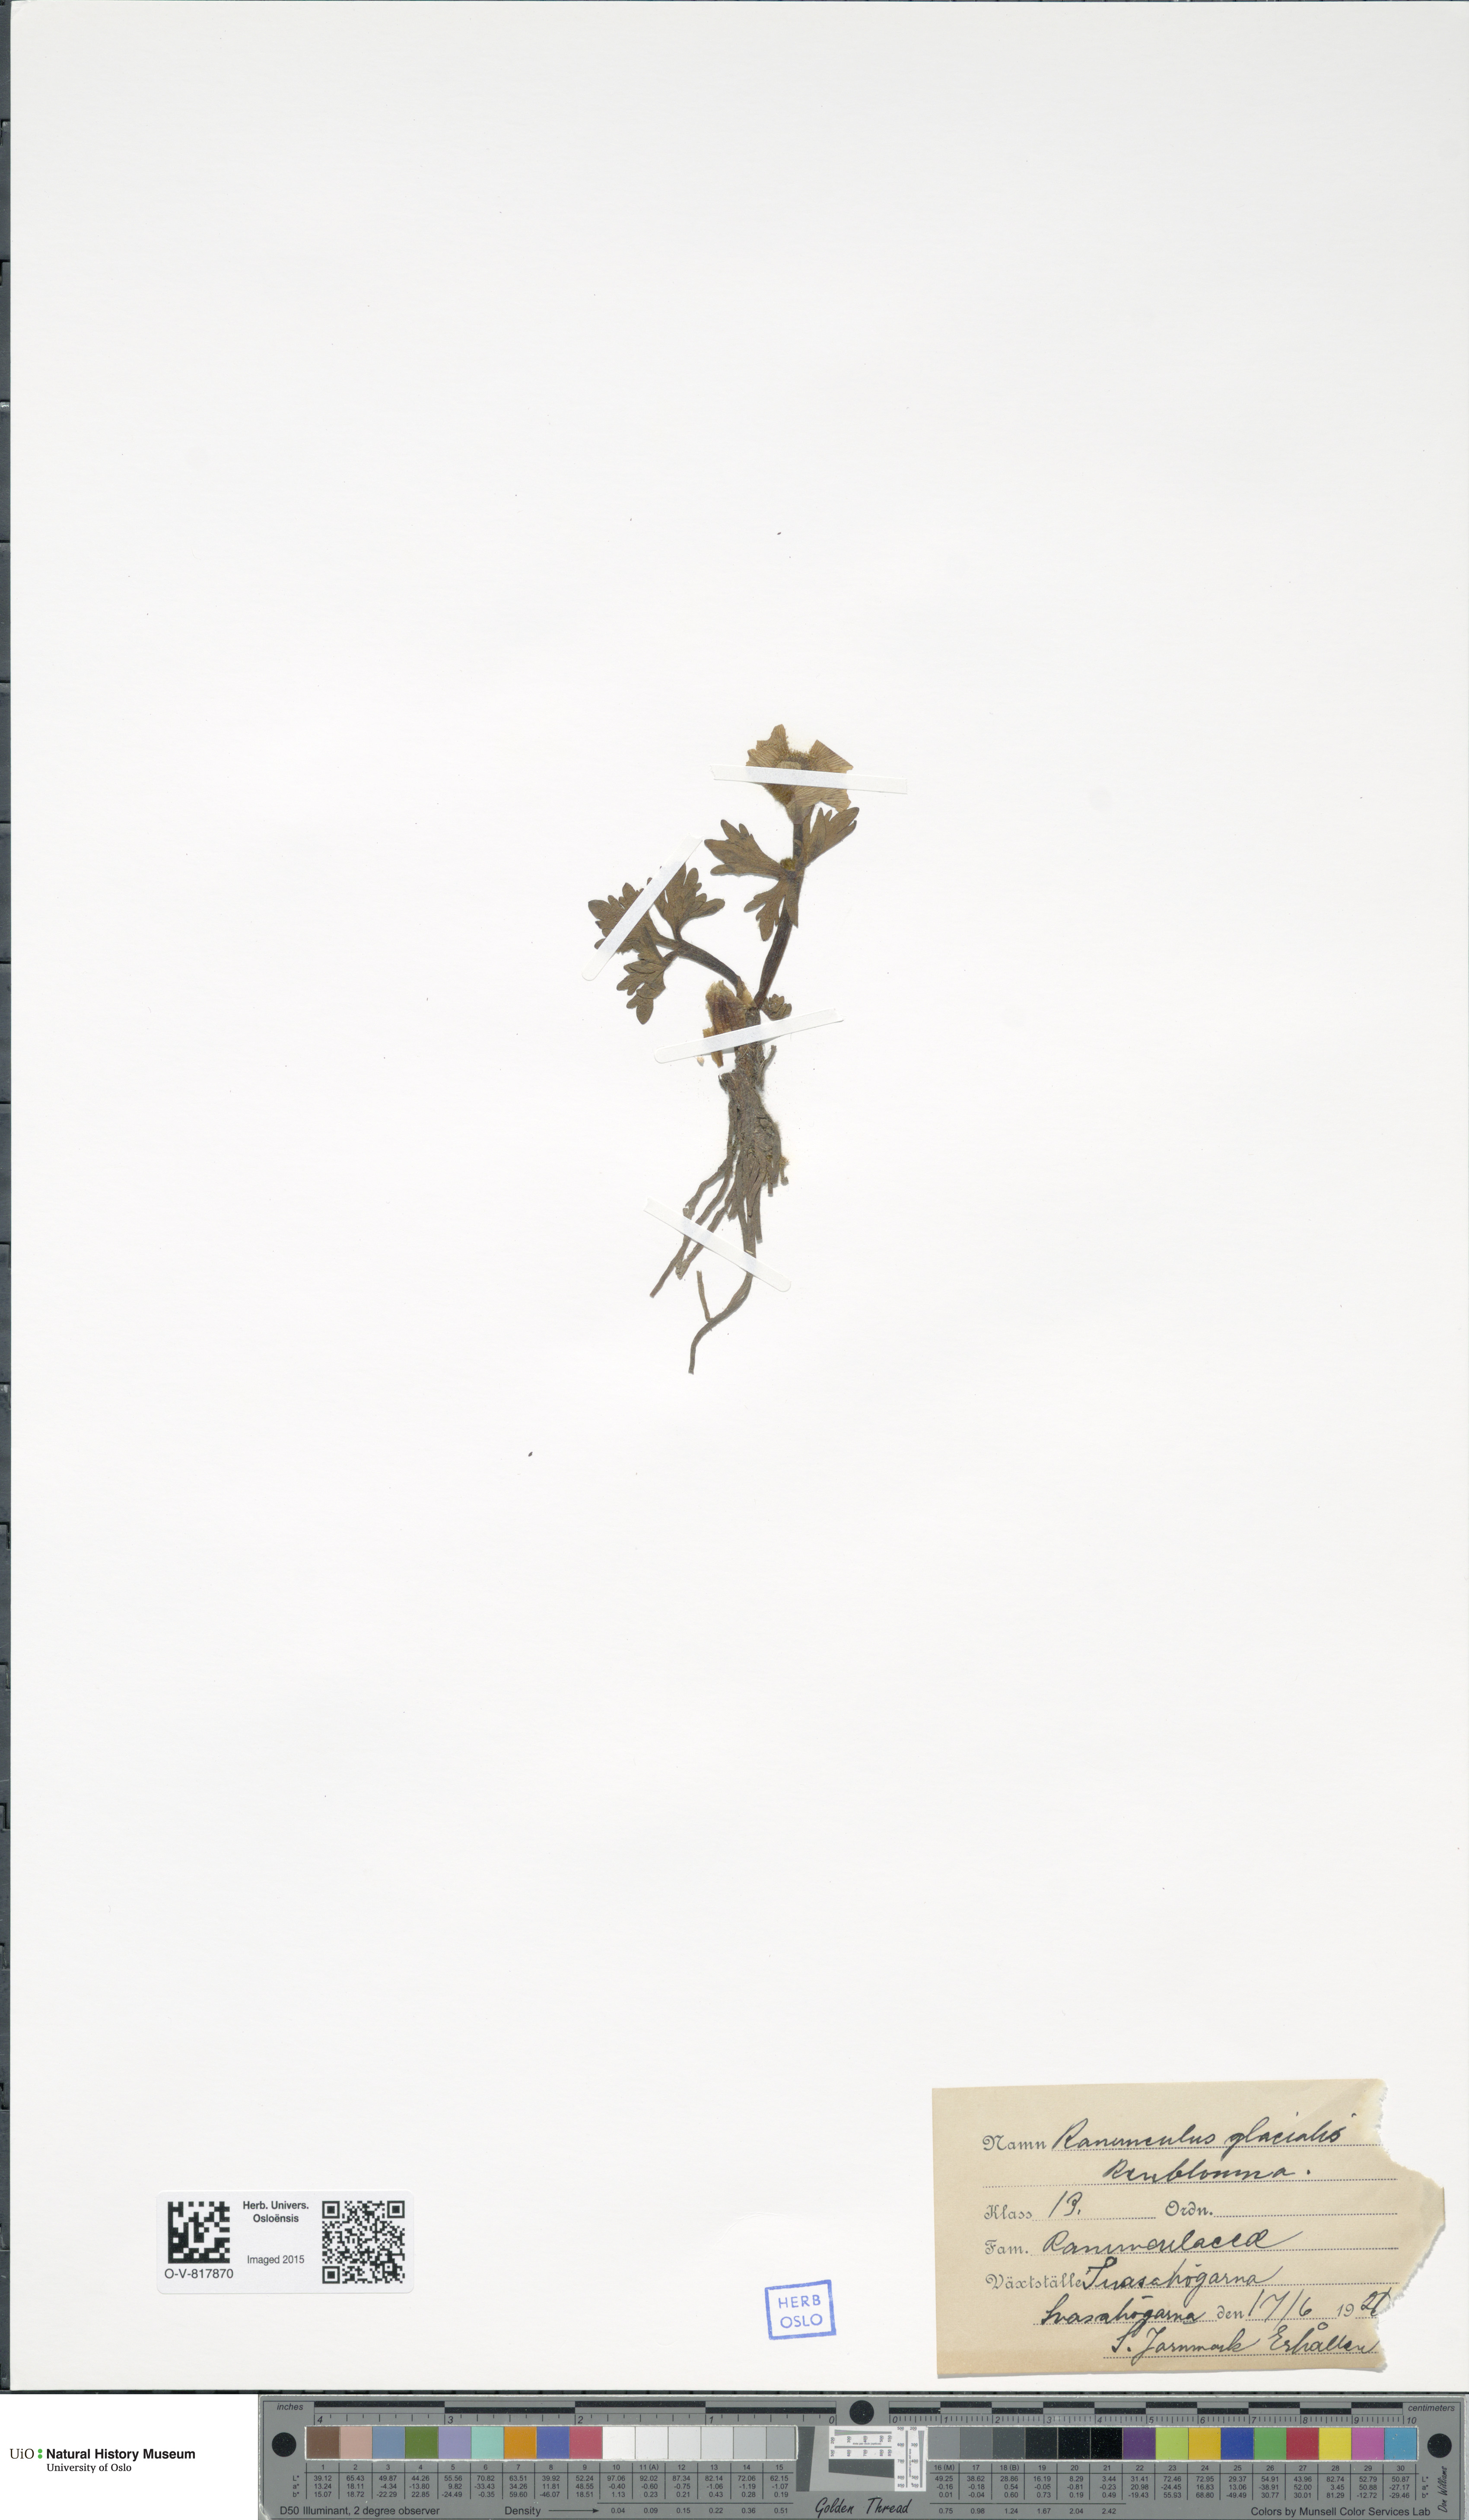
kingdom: Plantae
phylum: Tracheophyta
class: Magnoliopsida
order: Ranunculales
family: Ranunculaceae
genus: Ranunculus
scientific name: Ranunculus glacialis
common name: Glacier buttercup
